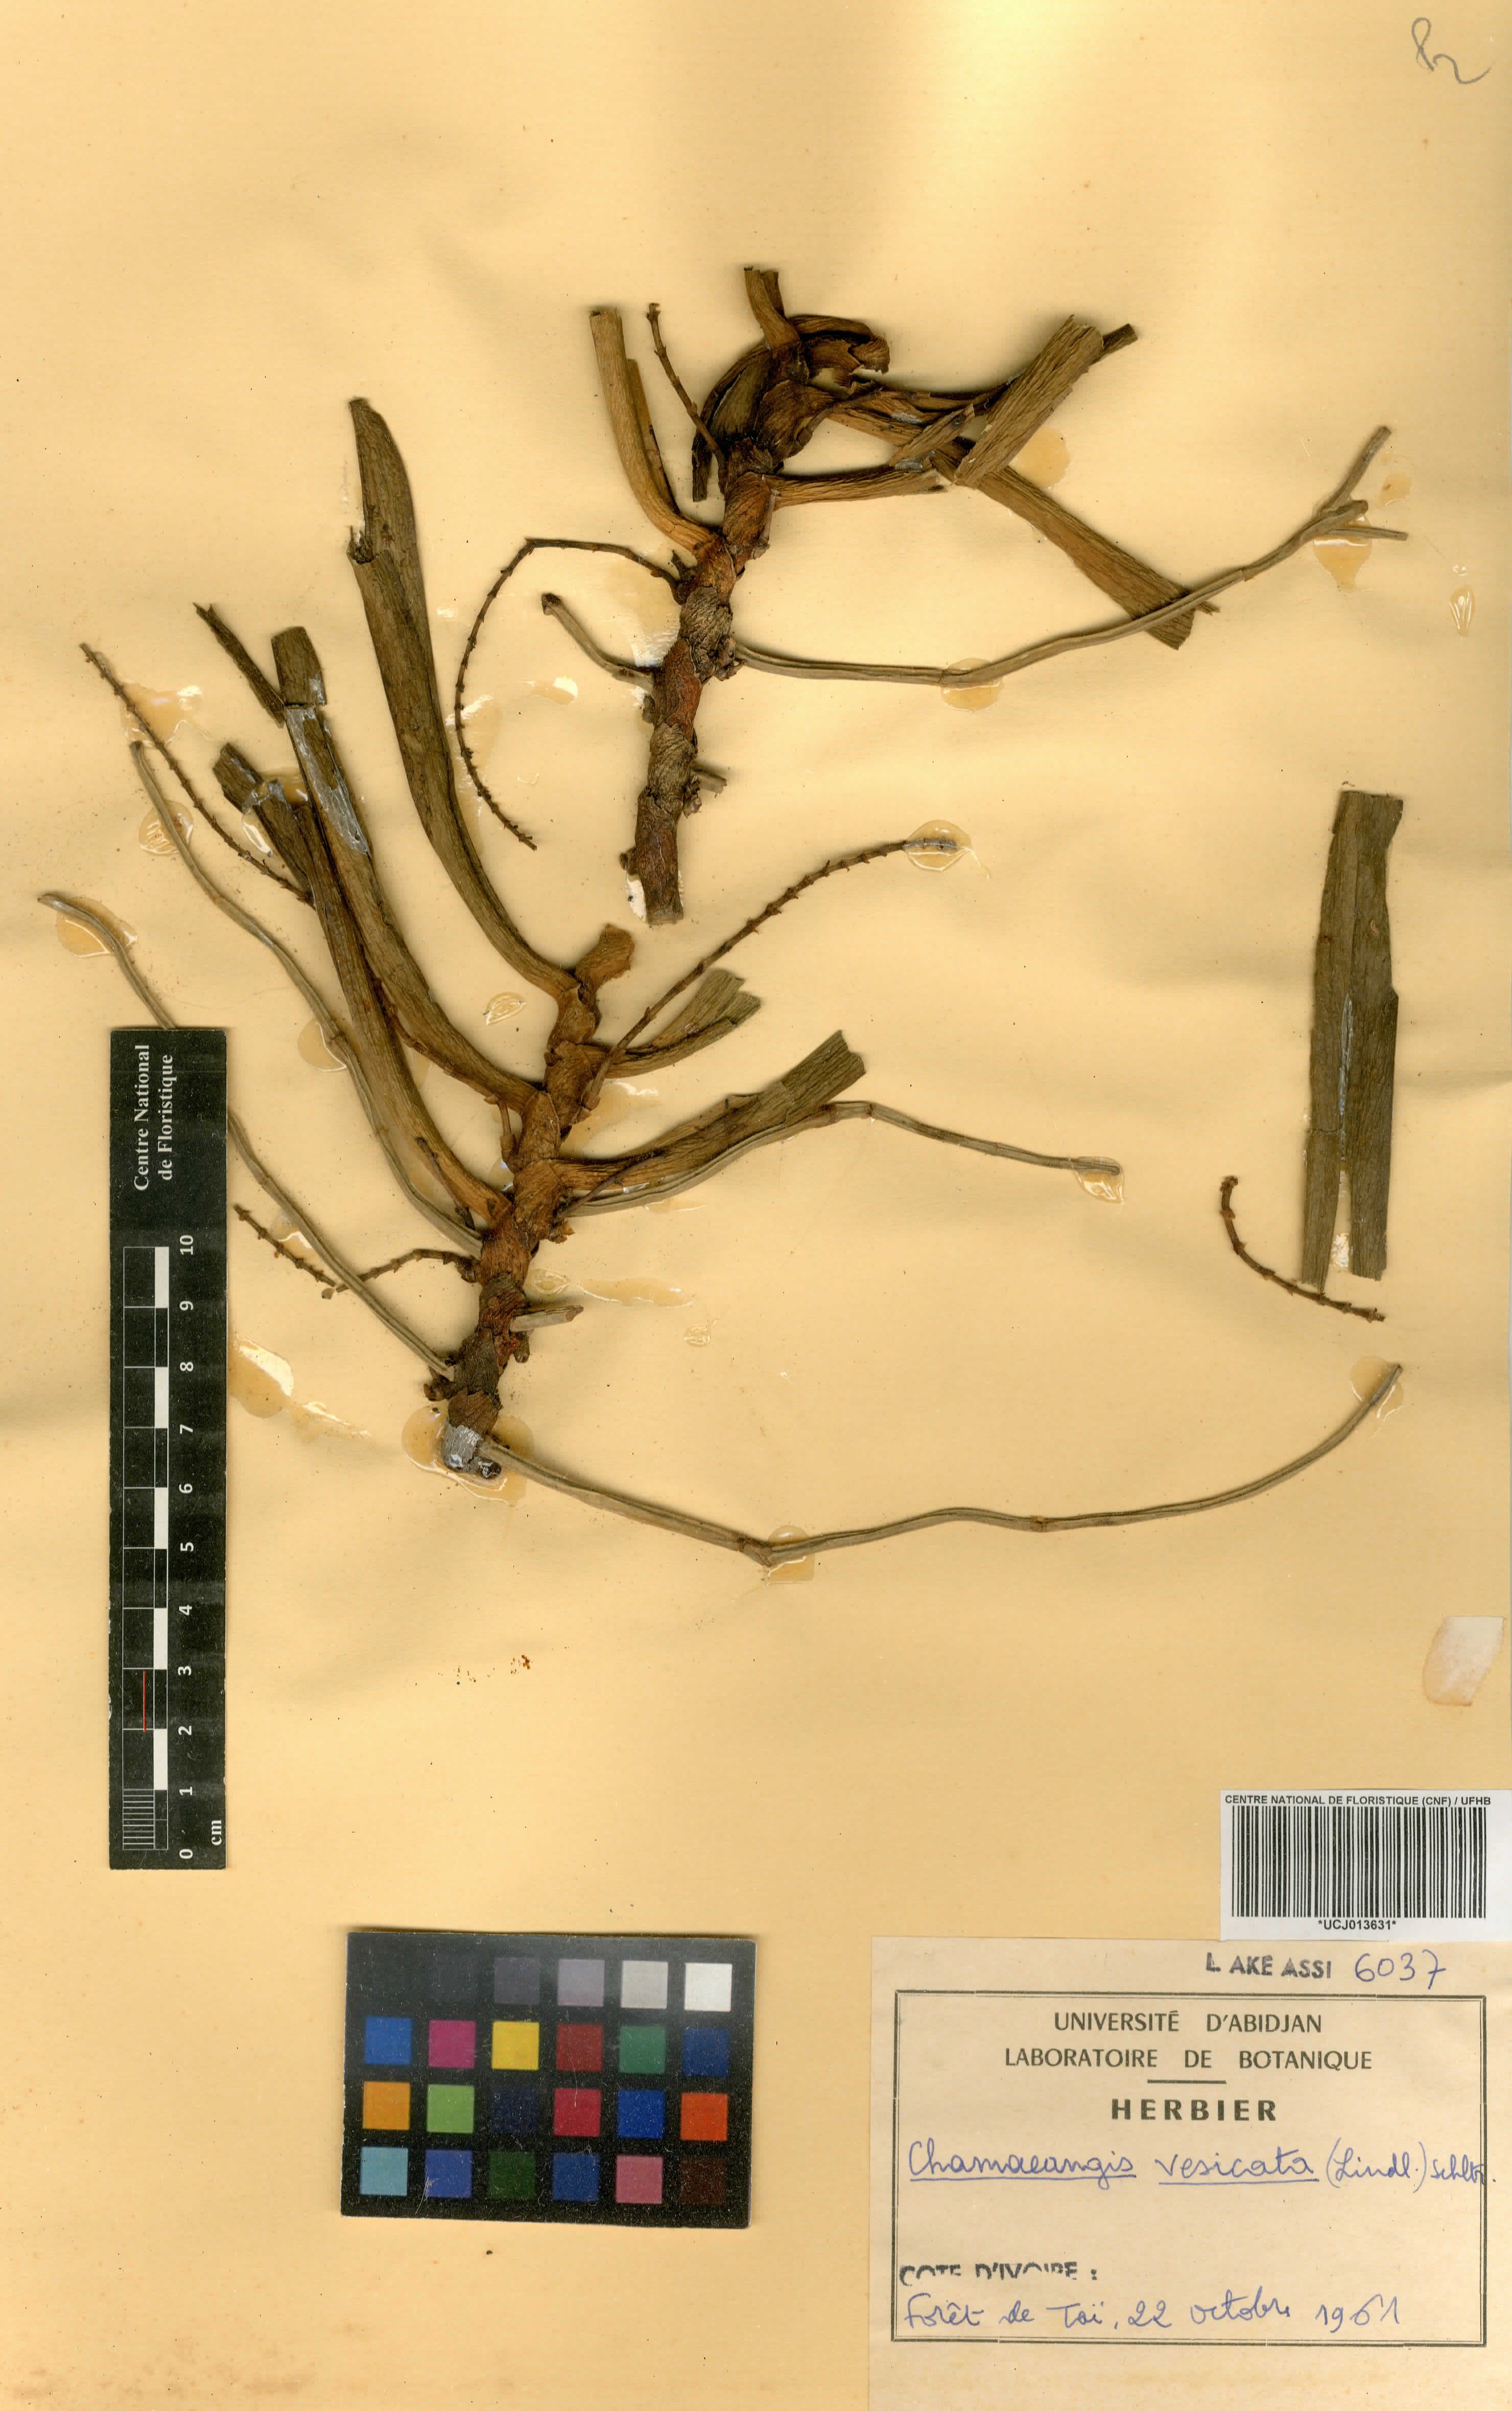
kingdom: Plantae
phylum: Tracheophyta
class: Liliopsida
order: Asparagales
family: Orchidaceae
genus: Diaphananthe
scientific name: Diaphananthe vesicata
